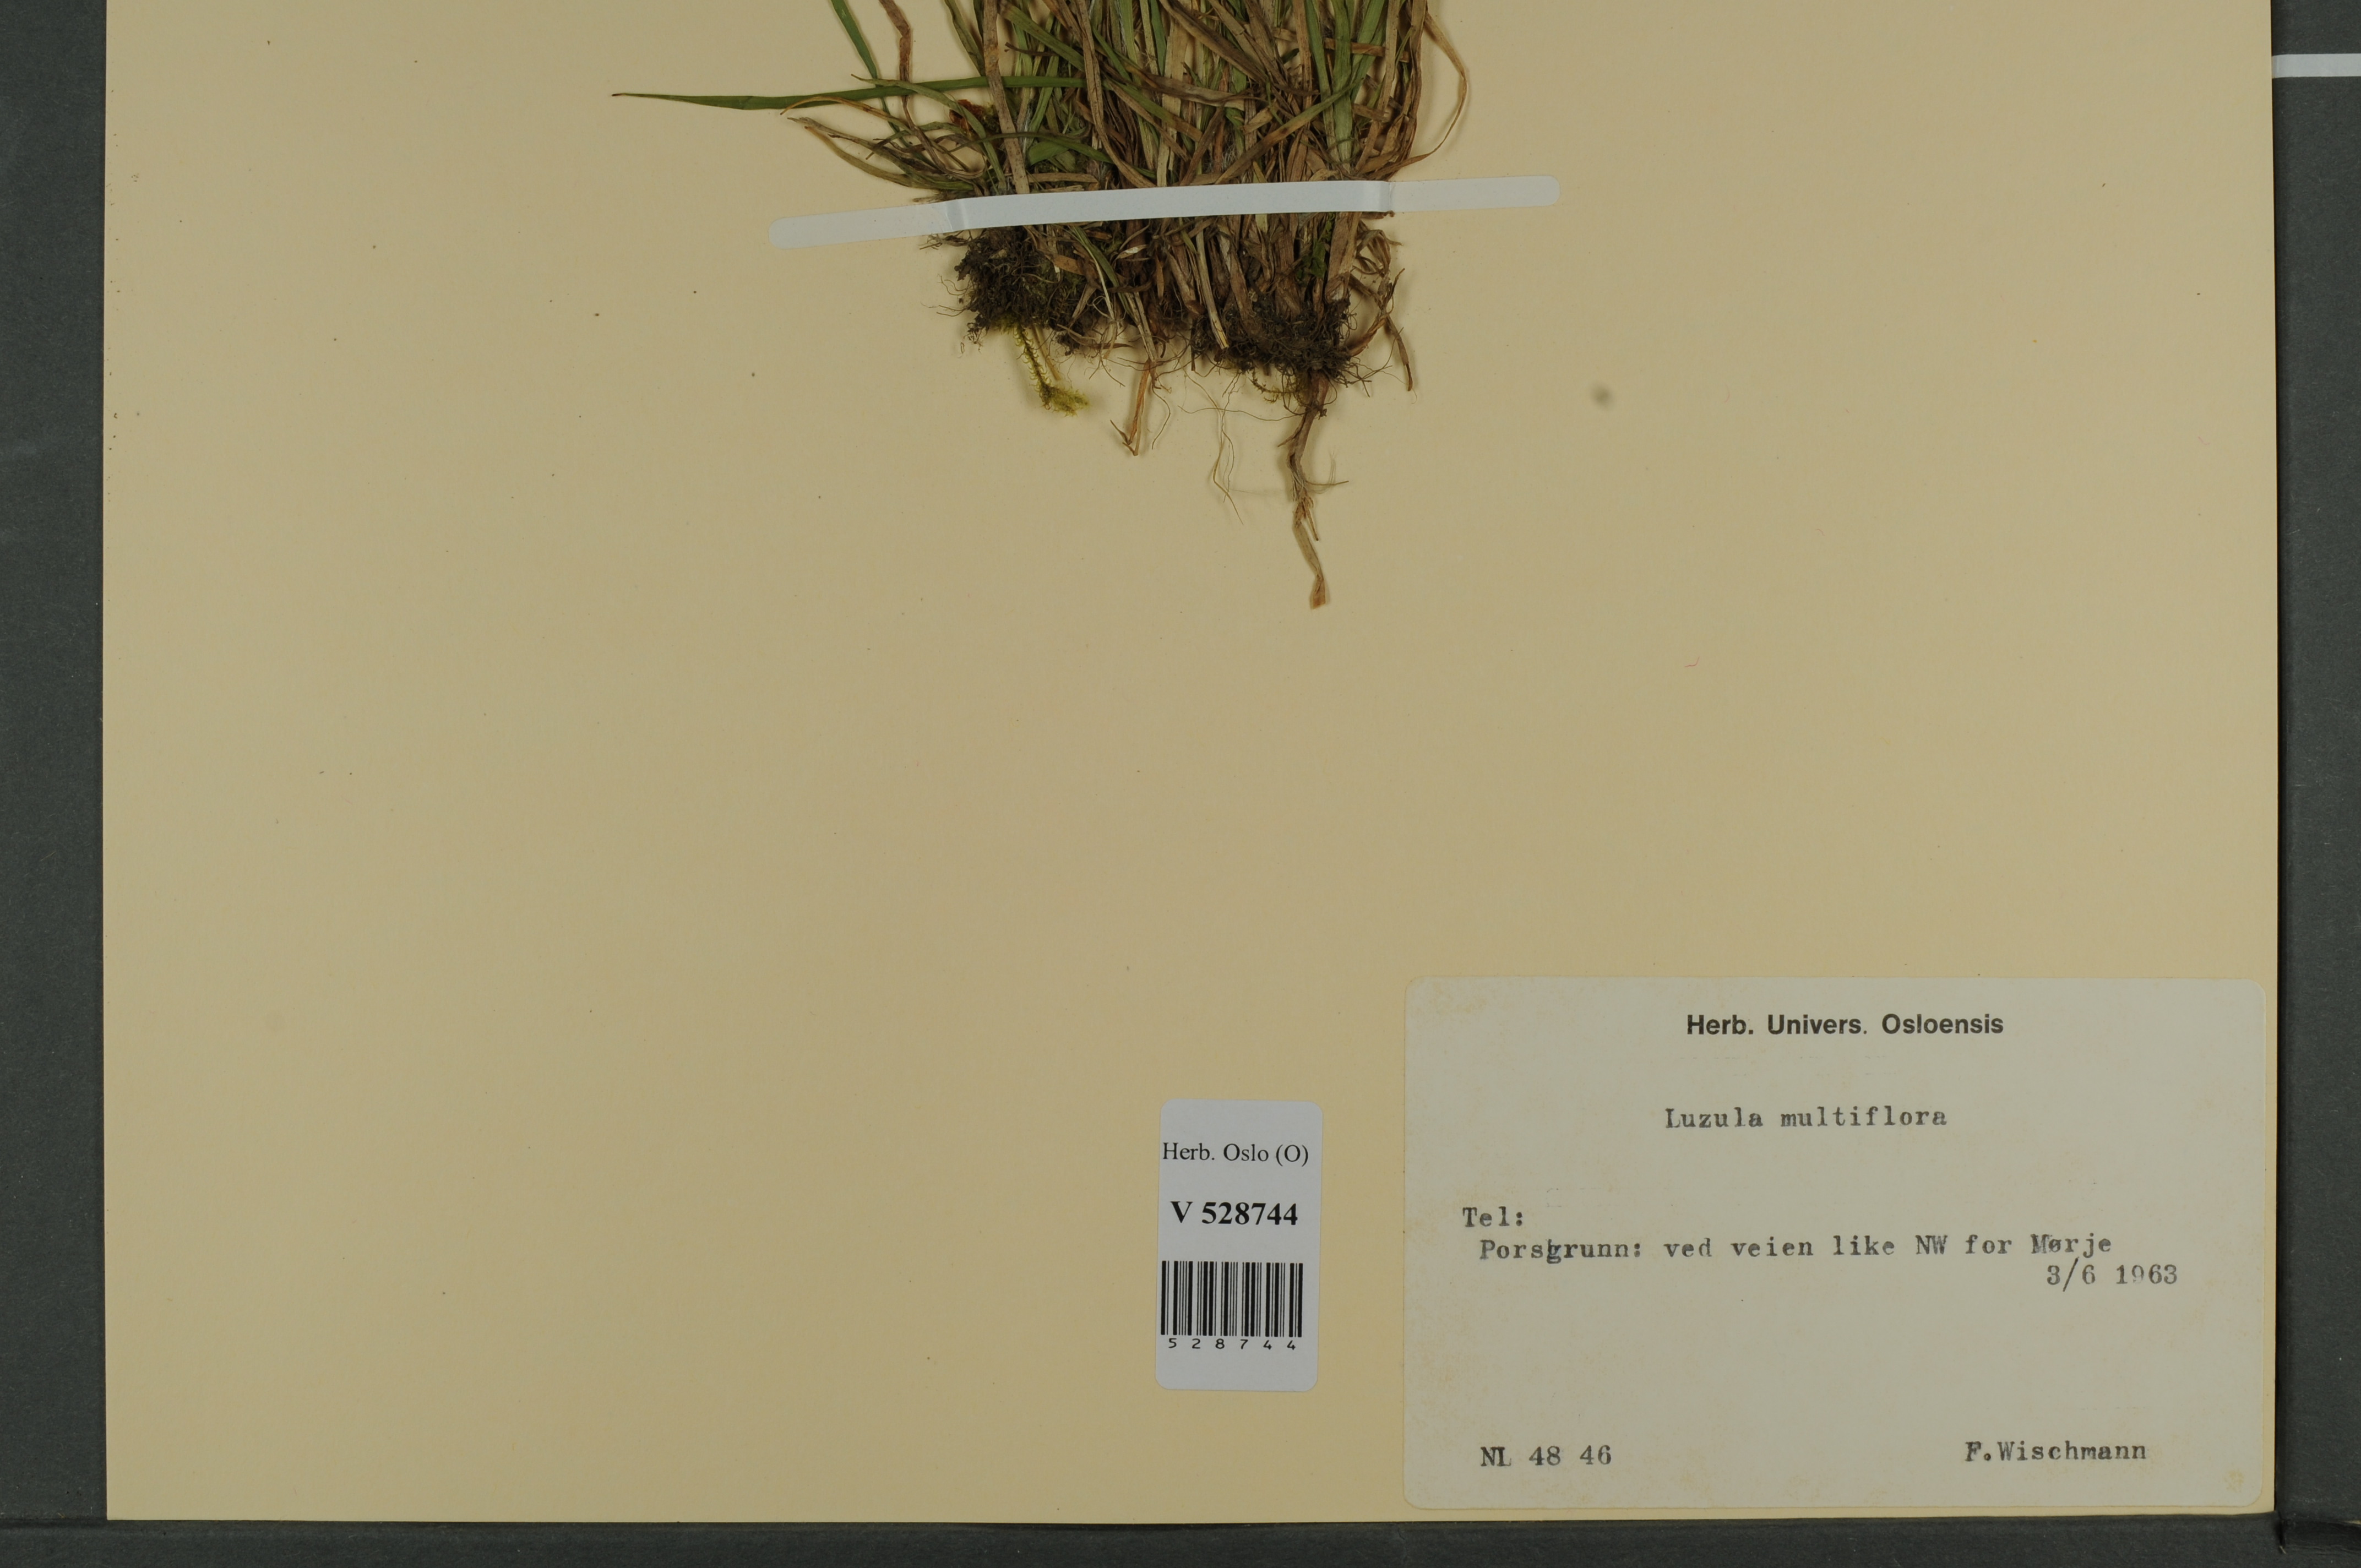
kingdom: Plantae
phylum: Tracheophyta
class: Liliopsida
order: Poales
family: Juncaceae
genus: Luzula
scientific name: Luzula multiflora
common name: Heath wood-rush
